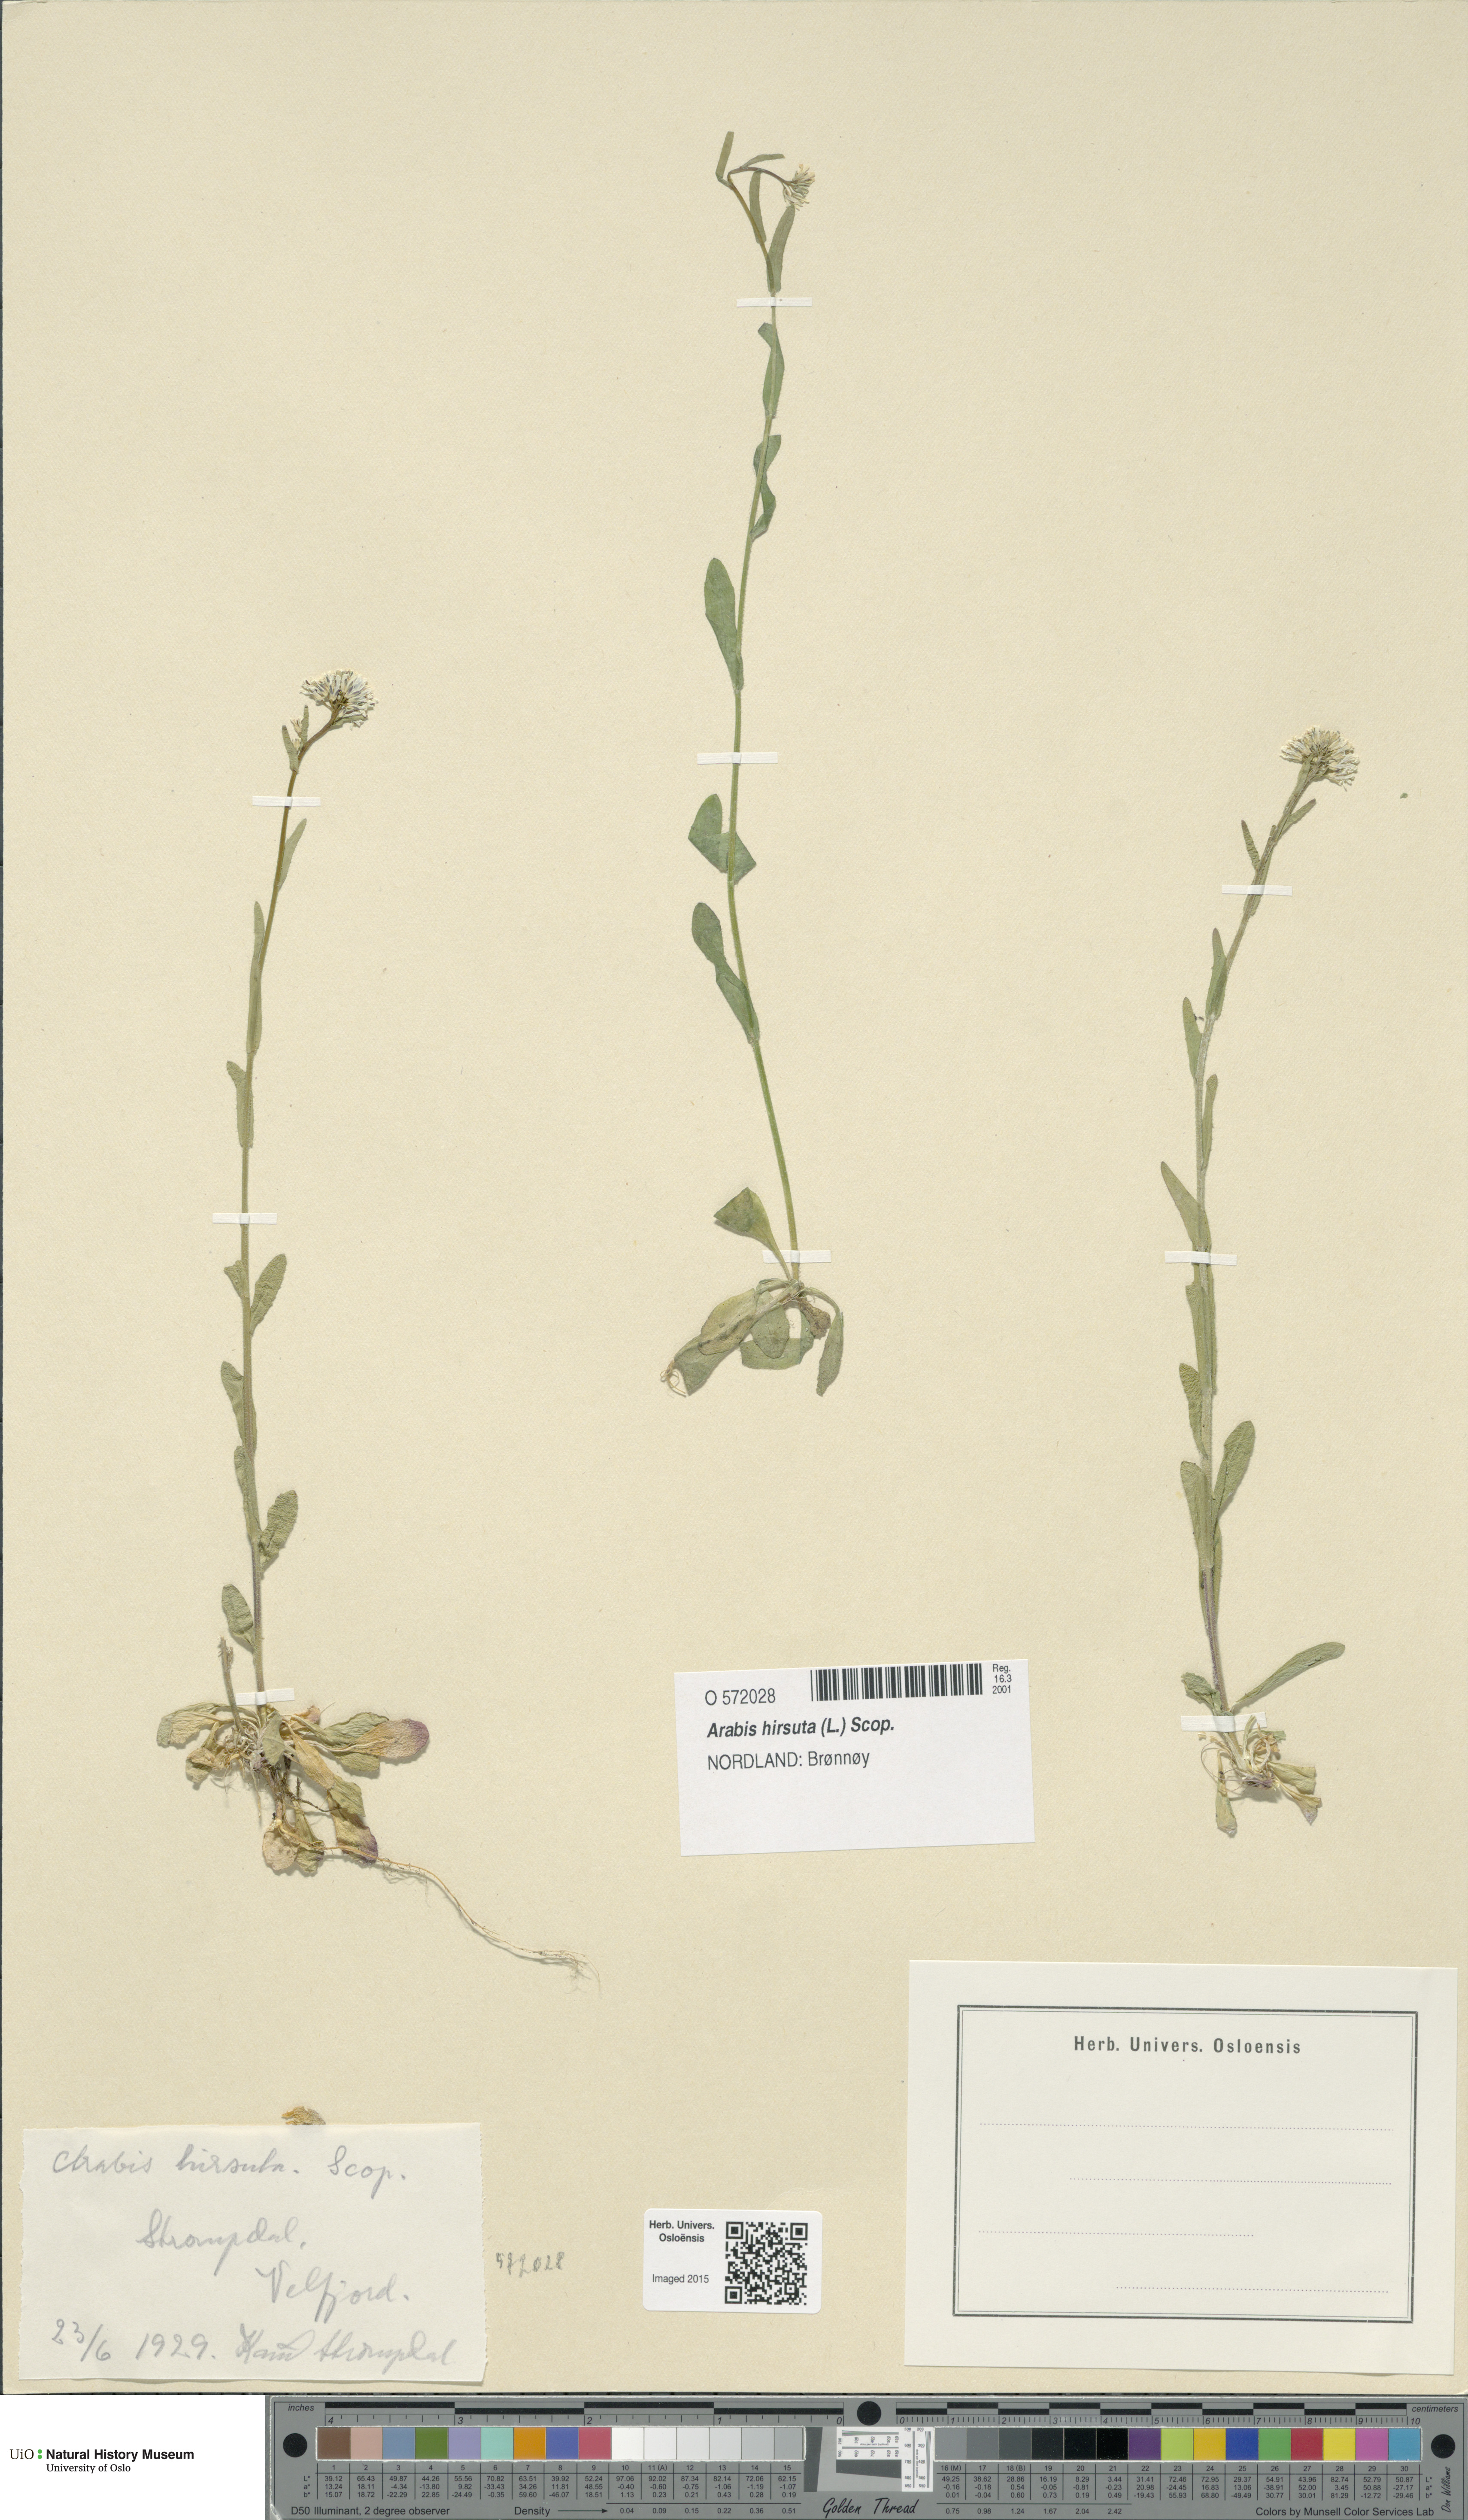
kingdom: Plantae
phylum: Tracheophyta
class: Magnoliopsida
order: Brassicales
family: Brassicaceae
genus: Arabis
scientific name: Arabis hirsuta
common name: Hairy rock-cress
